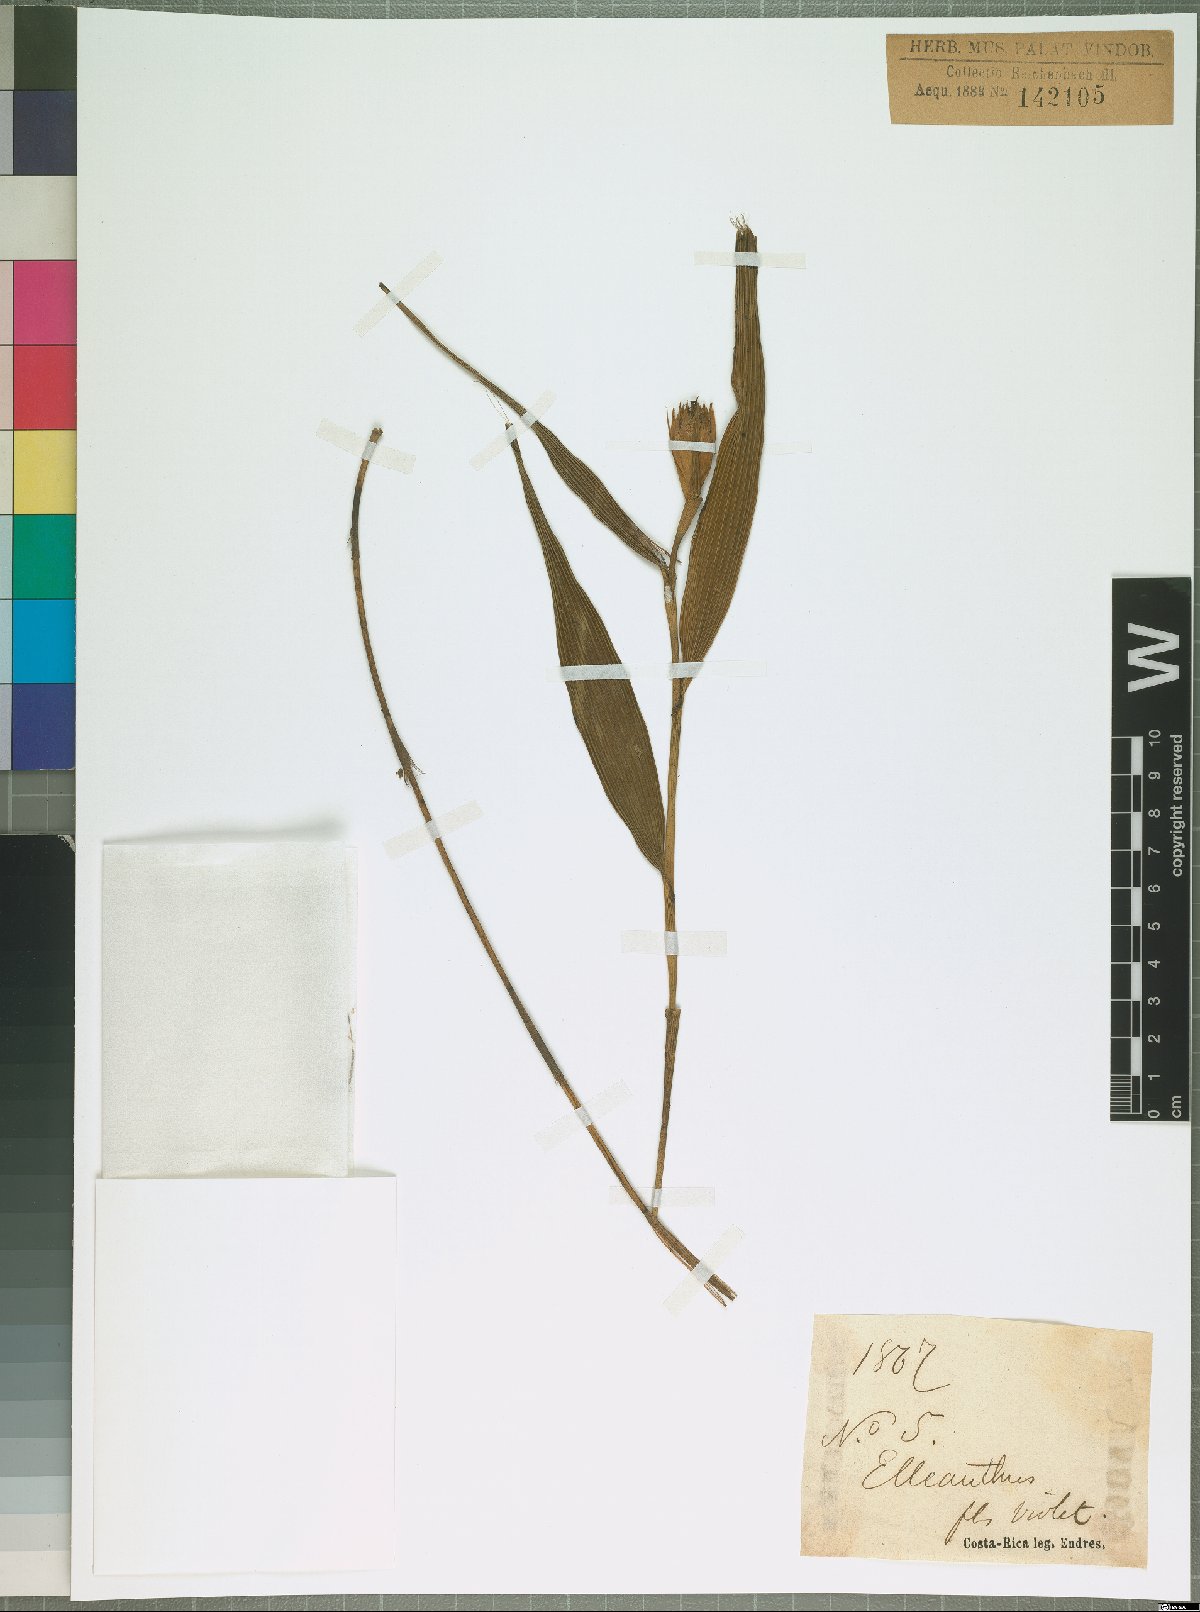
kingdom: Plantae
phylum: Tracheophyta
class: Liliopsida
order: Asparagales
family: Orchidaceae
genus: Elleanthus
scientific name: Elleanthus
